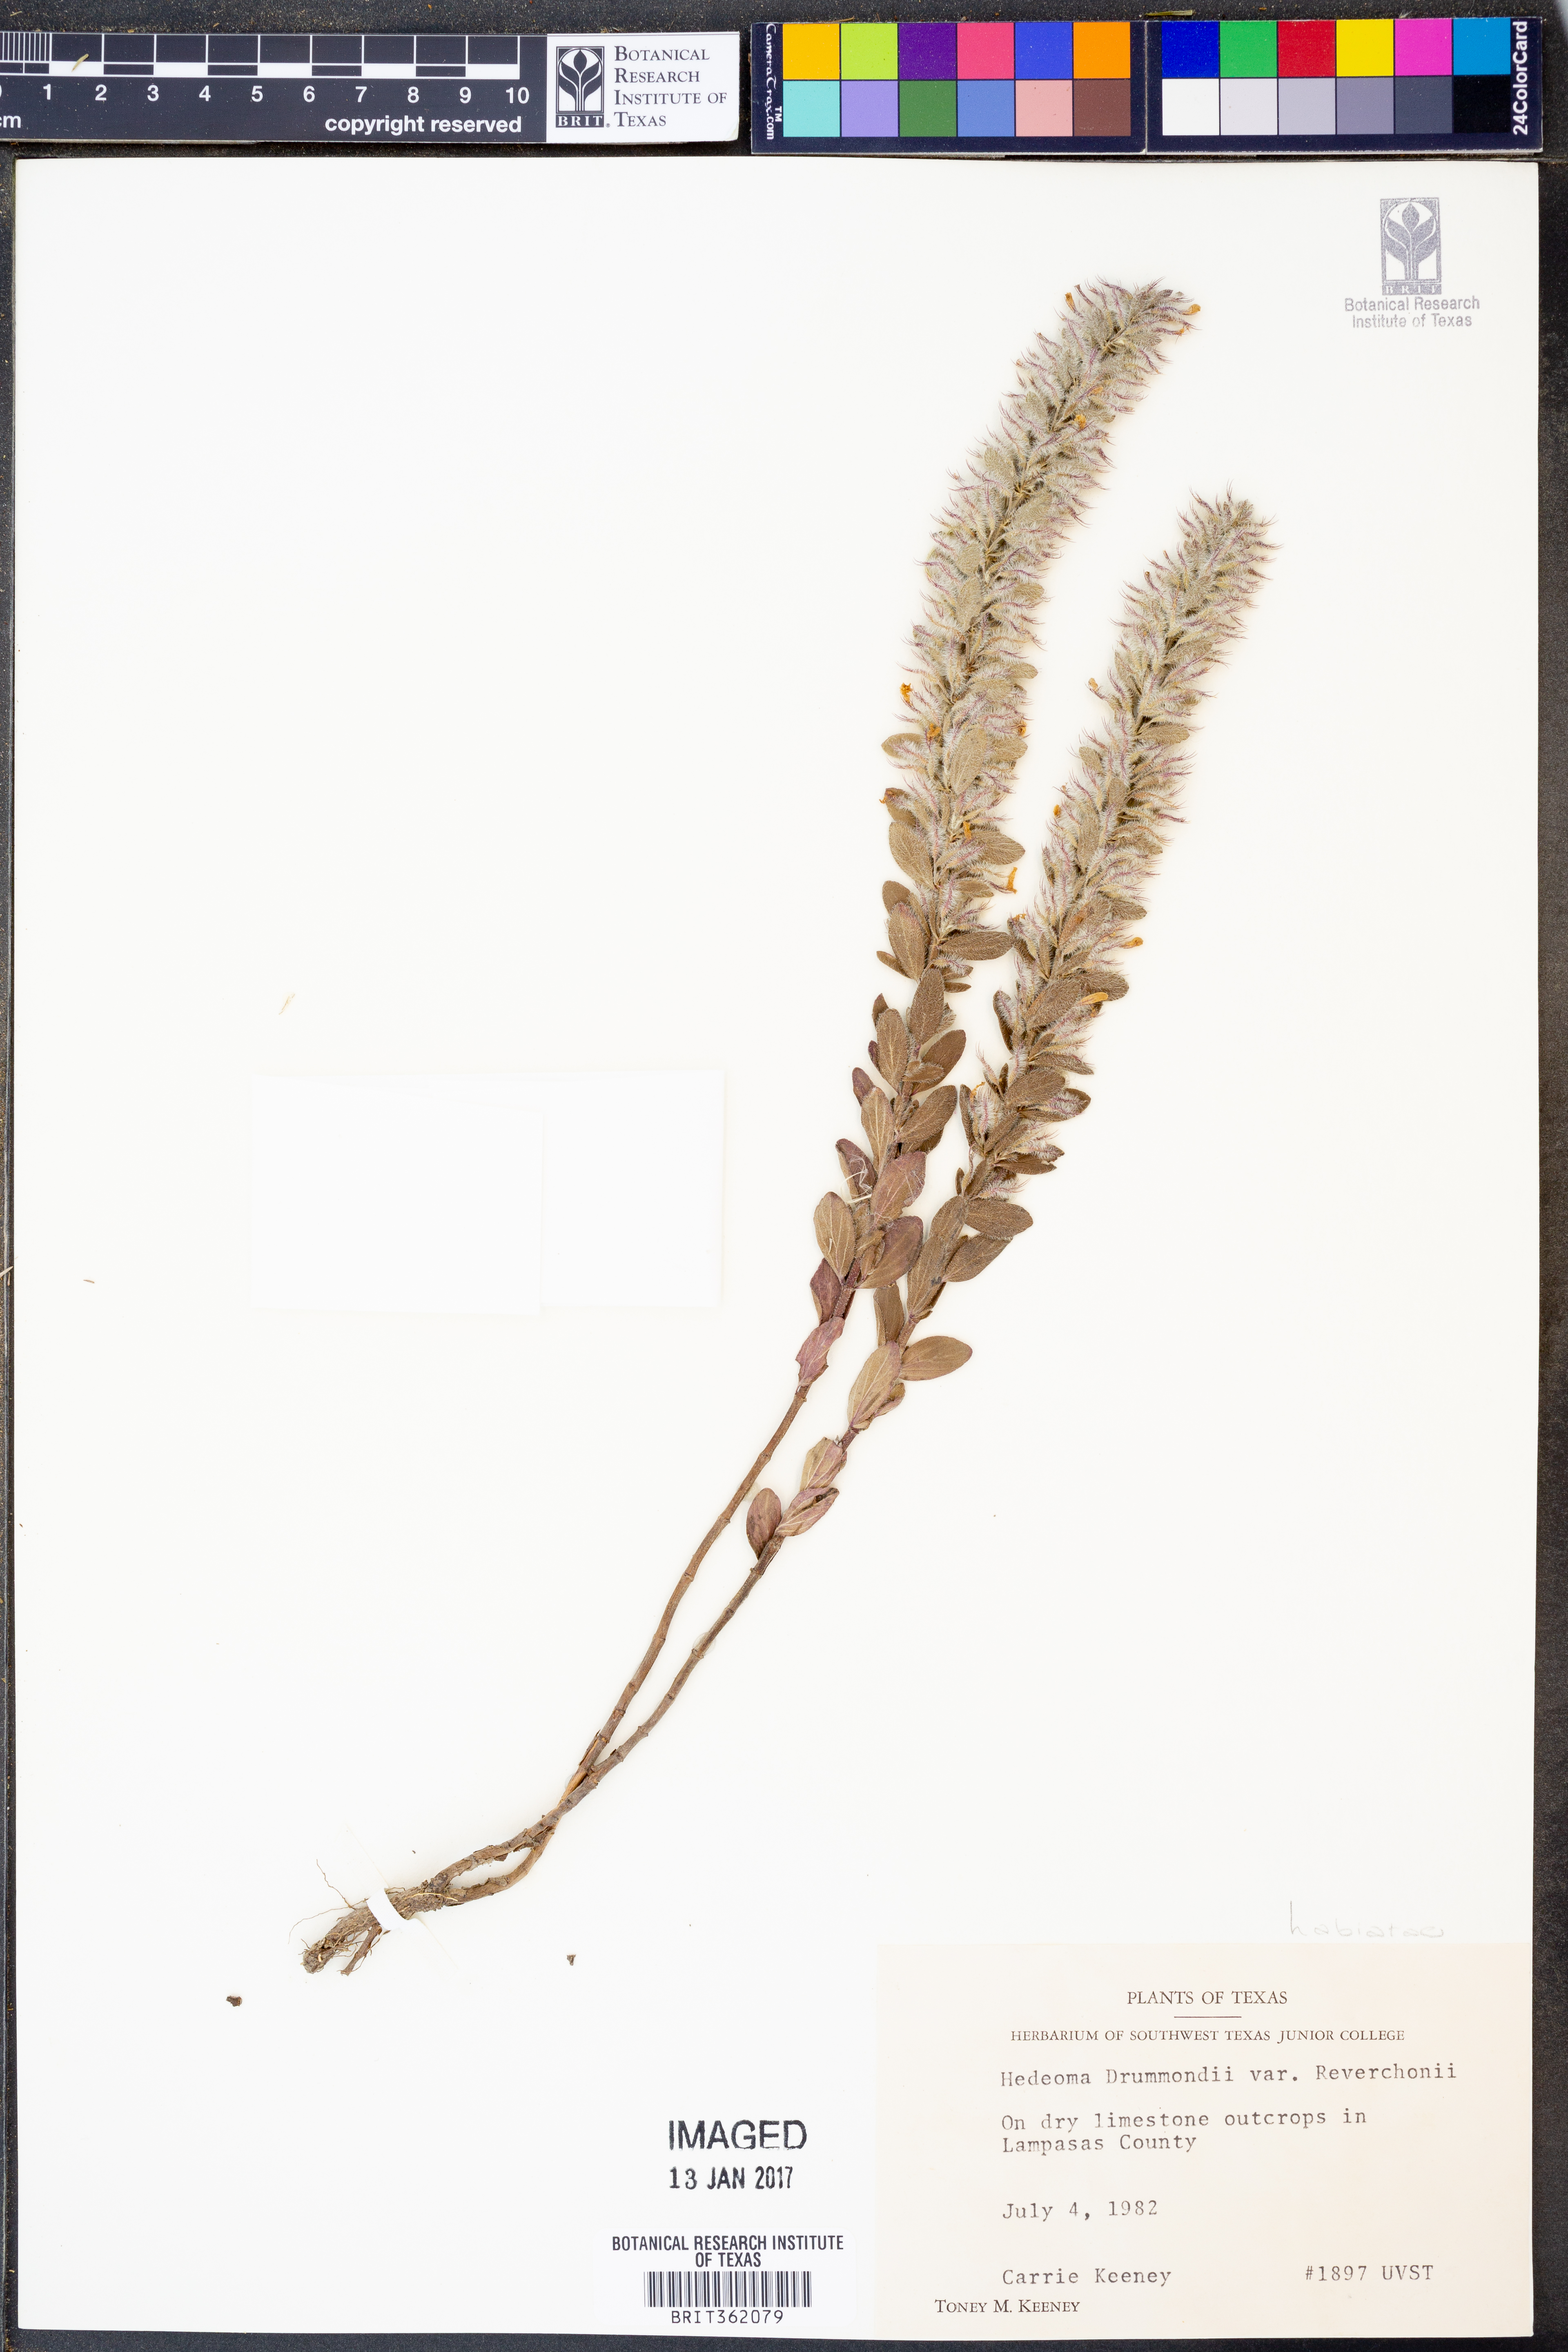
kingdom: Plantae
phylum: Tracheophyta
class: Magnoliopsida
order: Lamiales
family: Lamiaceae
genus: Hedeoma
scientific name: Hedeoma reverchonii
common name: Reverchon's false penny-royal
